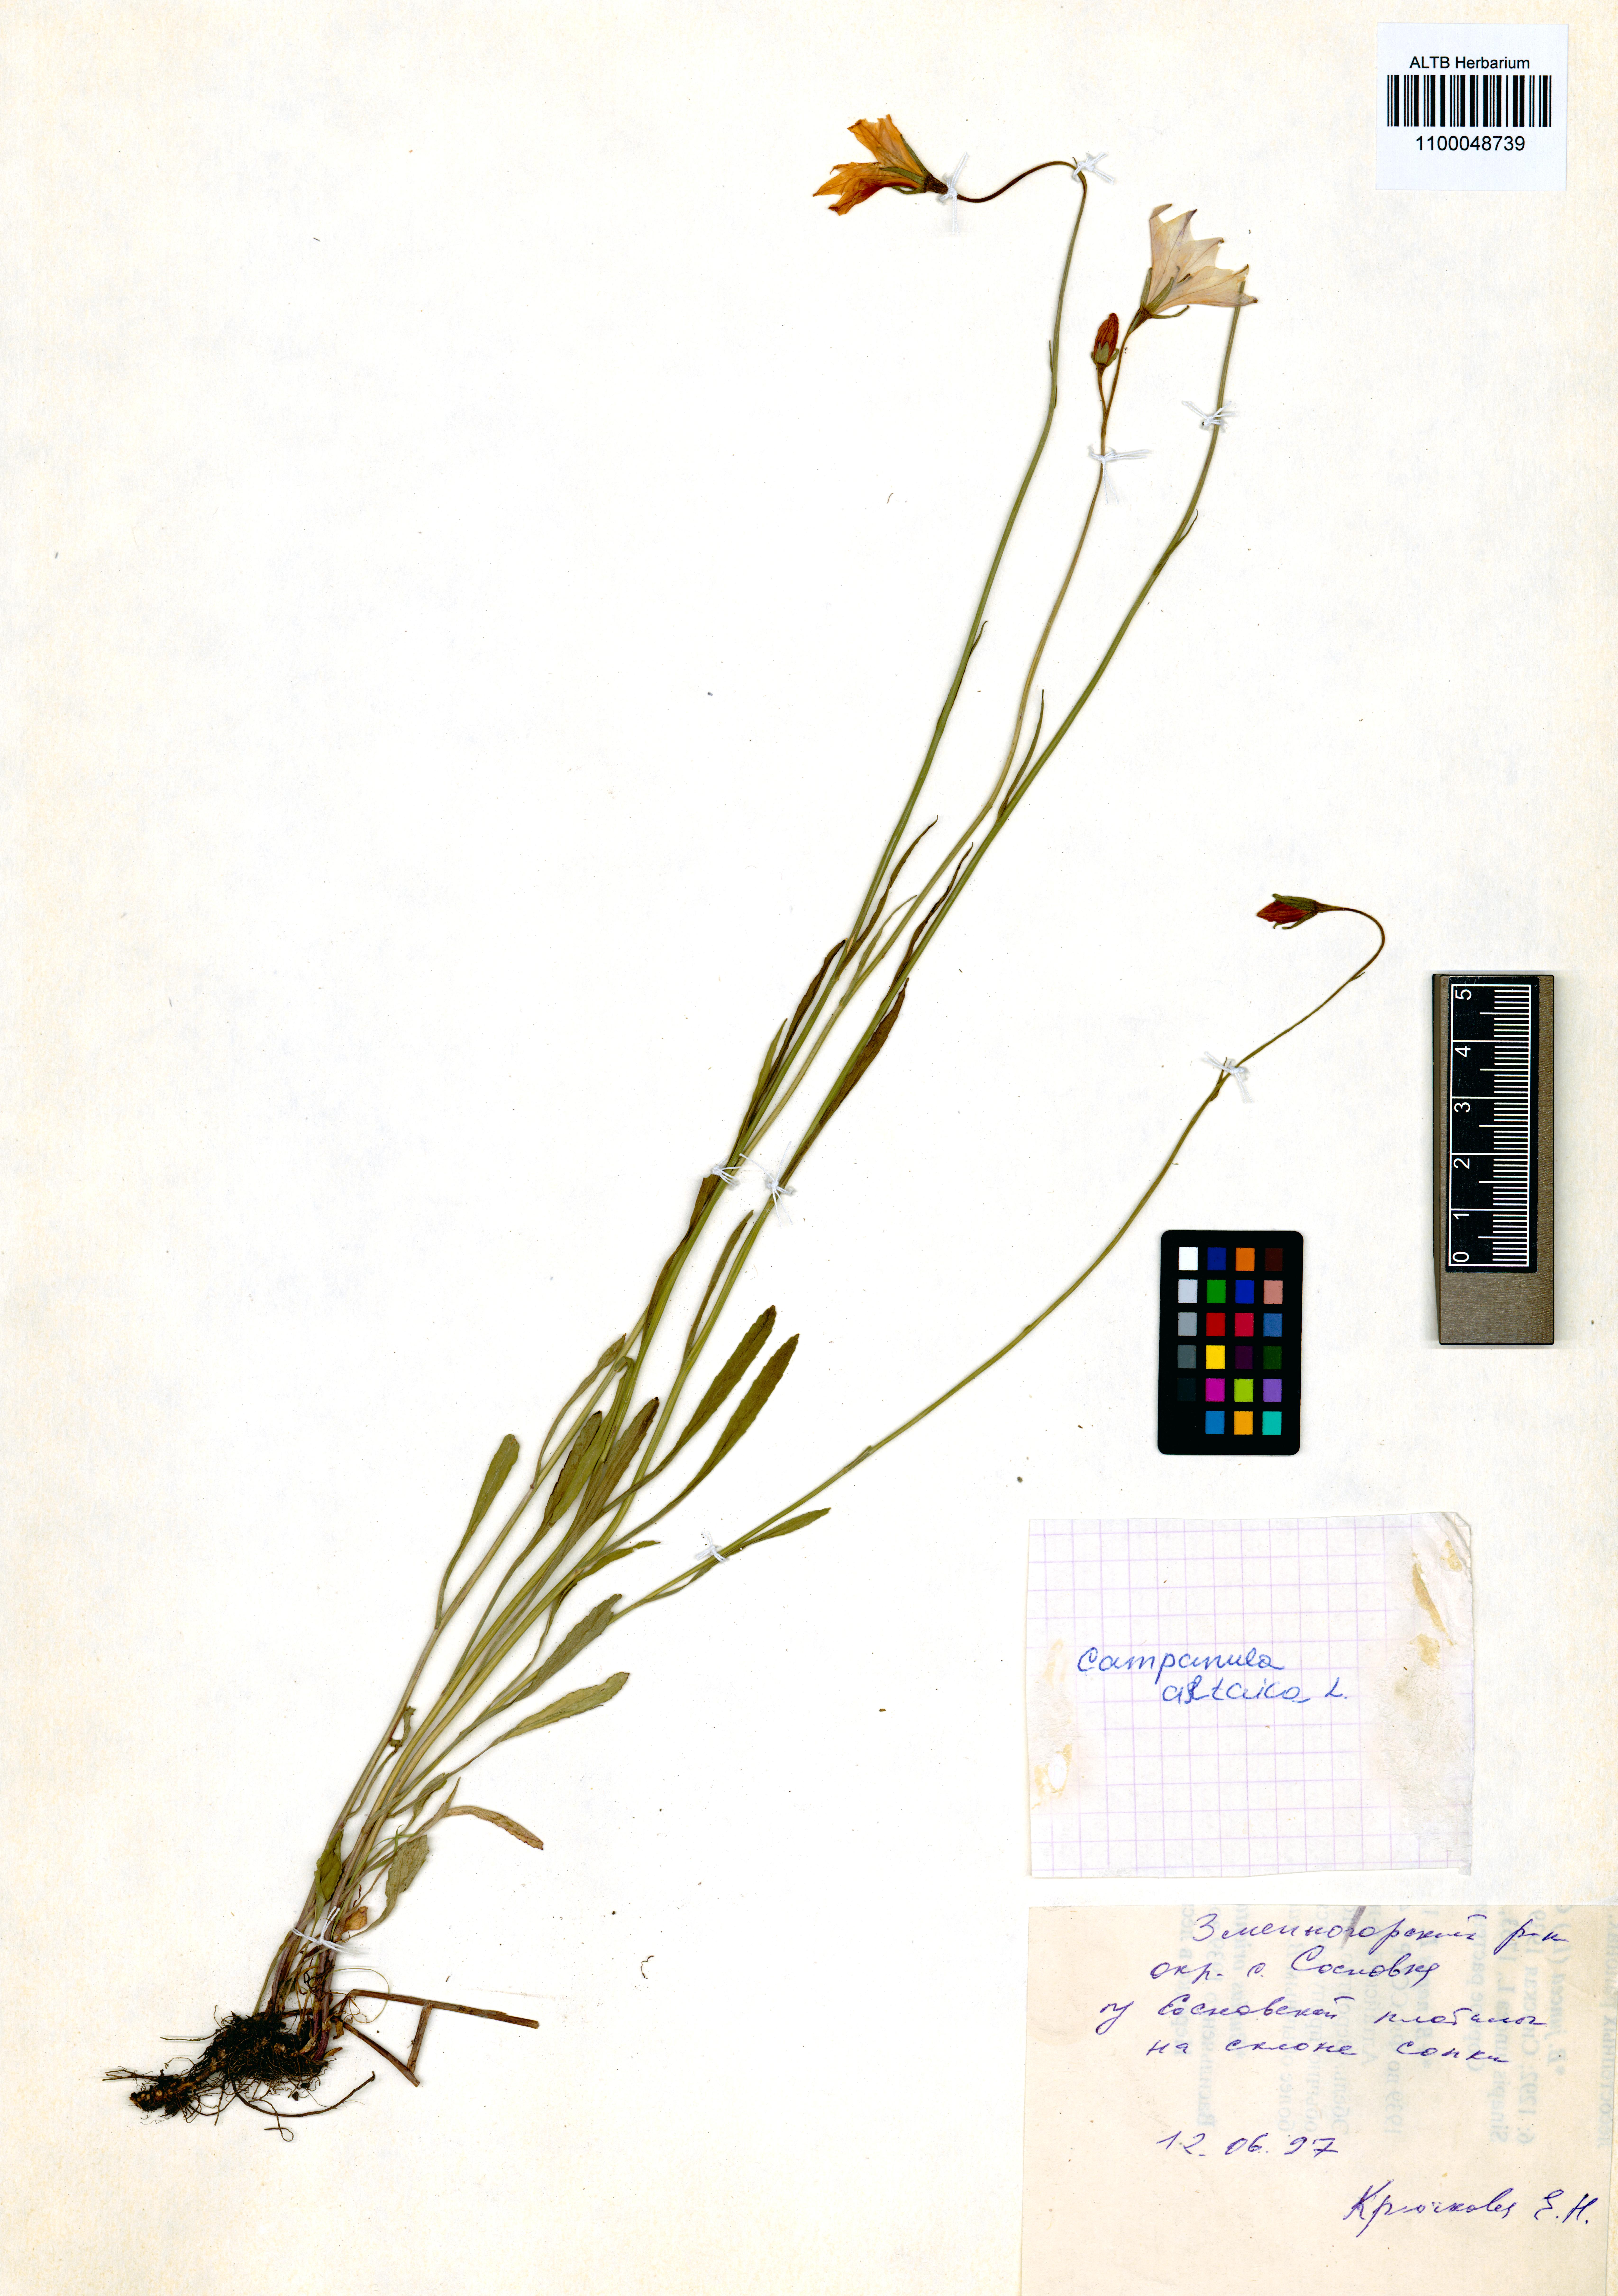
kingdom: Plantae
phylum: Tracheophyta
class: Magnoliopsida
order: Asterales
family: Campanulaceae
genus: Campanula
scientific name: Campanula stevenii
